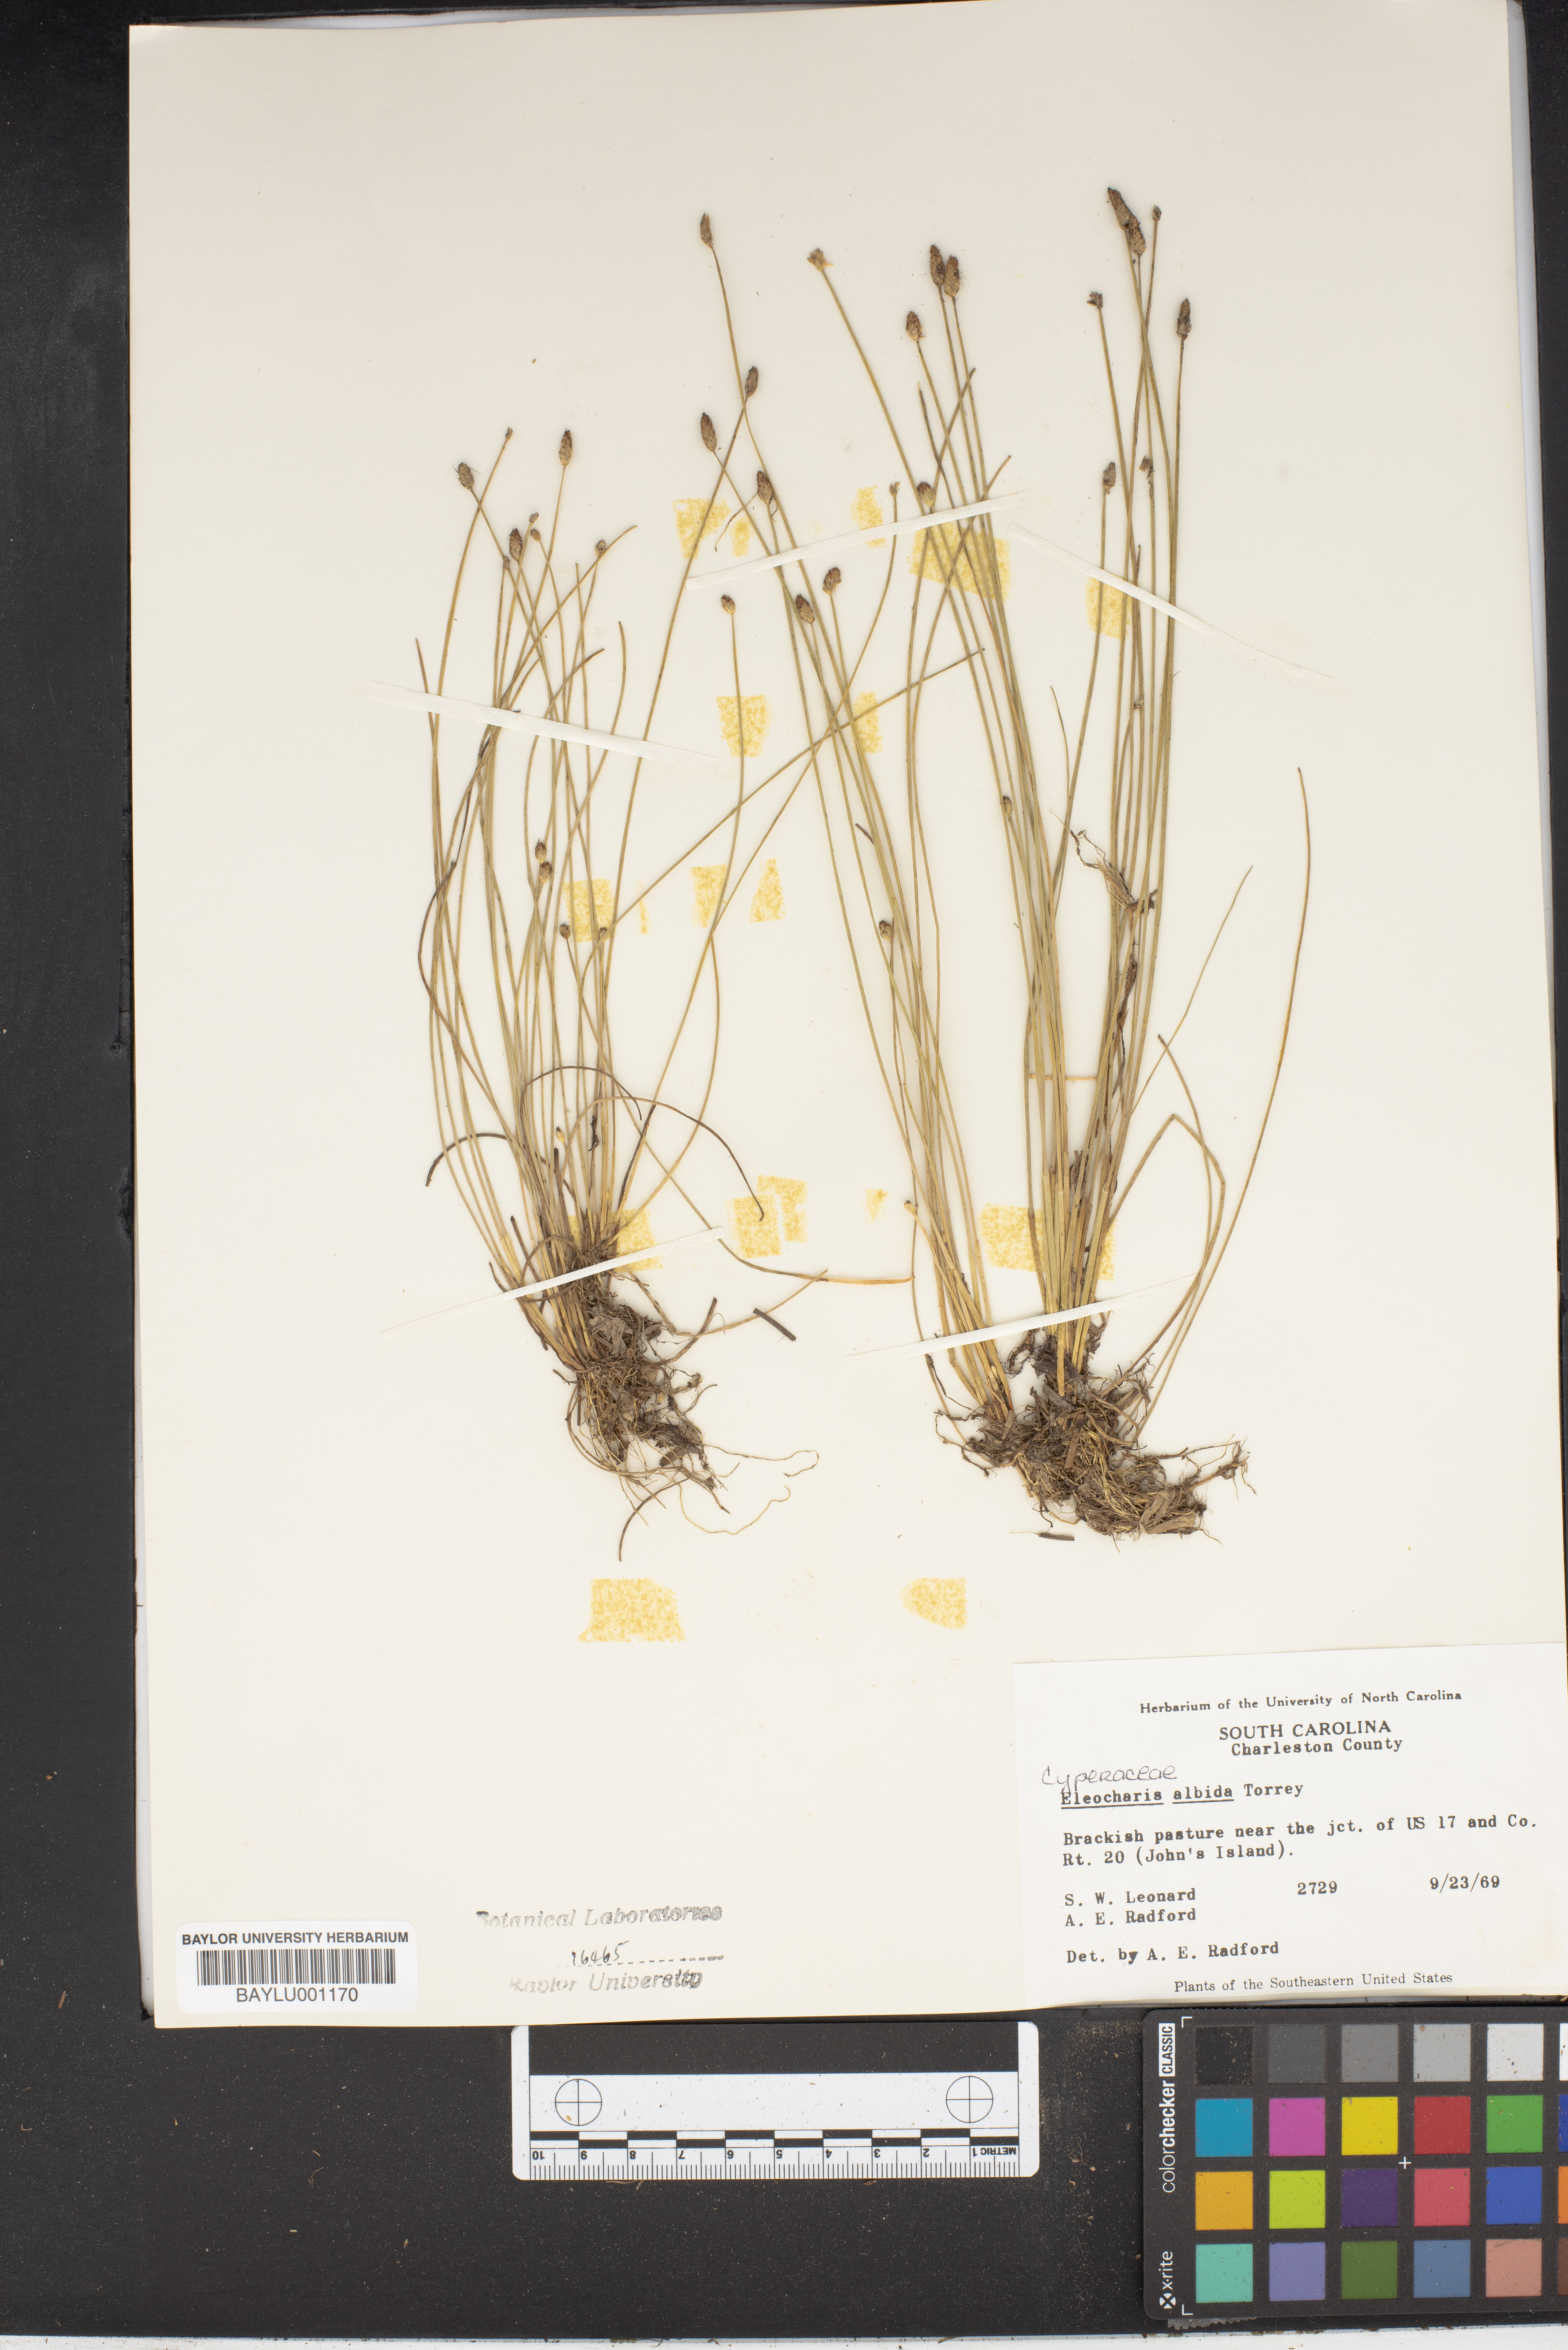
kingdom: Plantae
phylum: Tracheophyta
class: Liliopsida
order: Poales
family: Cyperaceae
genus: Eleocharis
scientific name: Eleocharis albida
